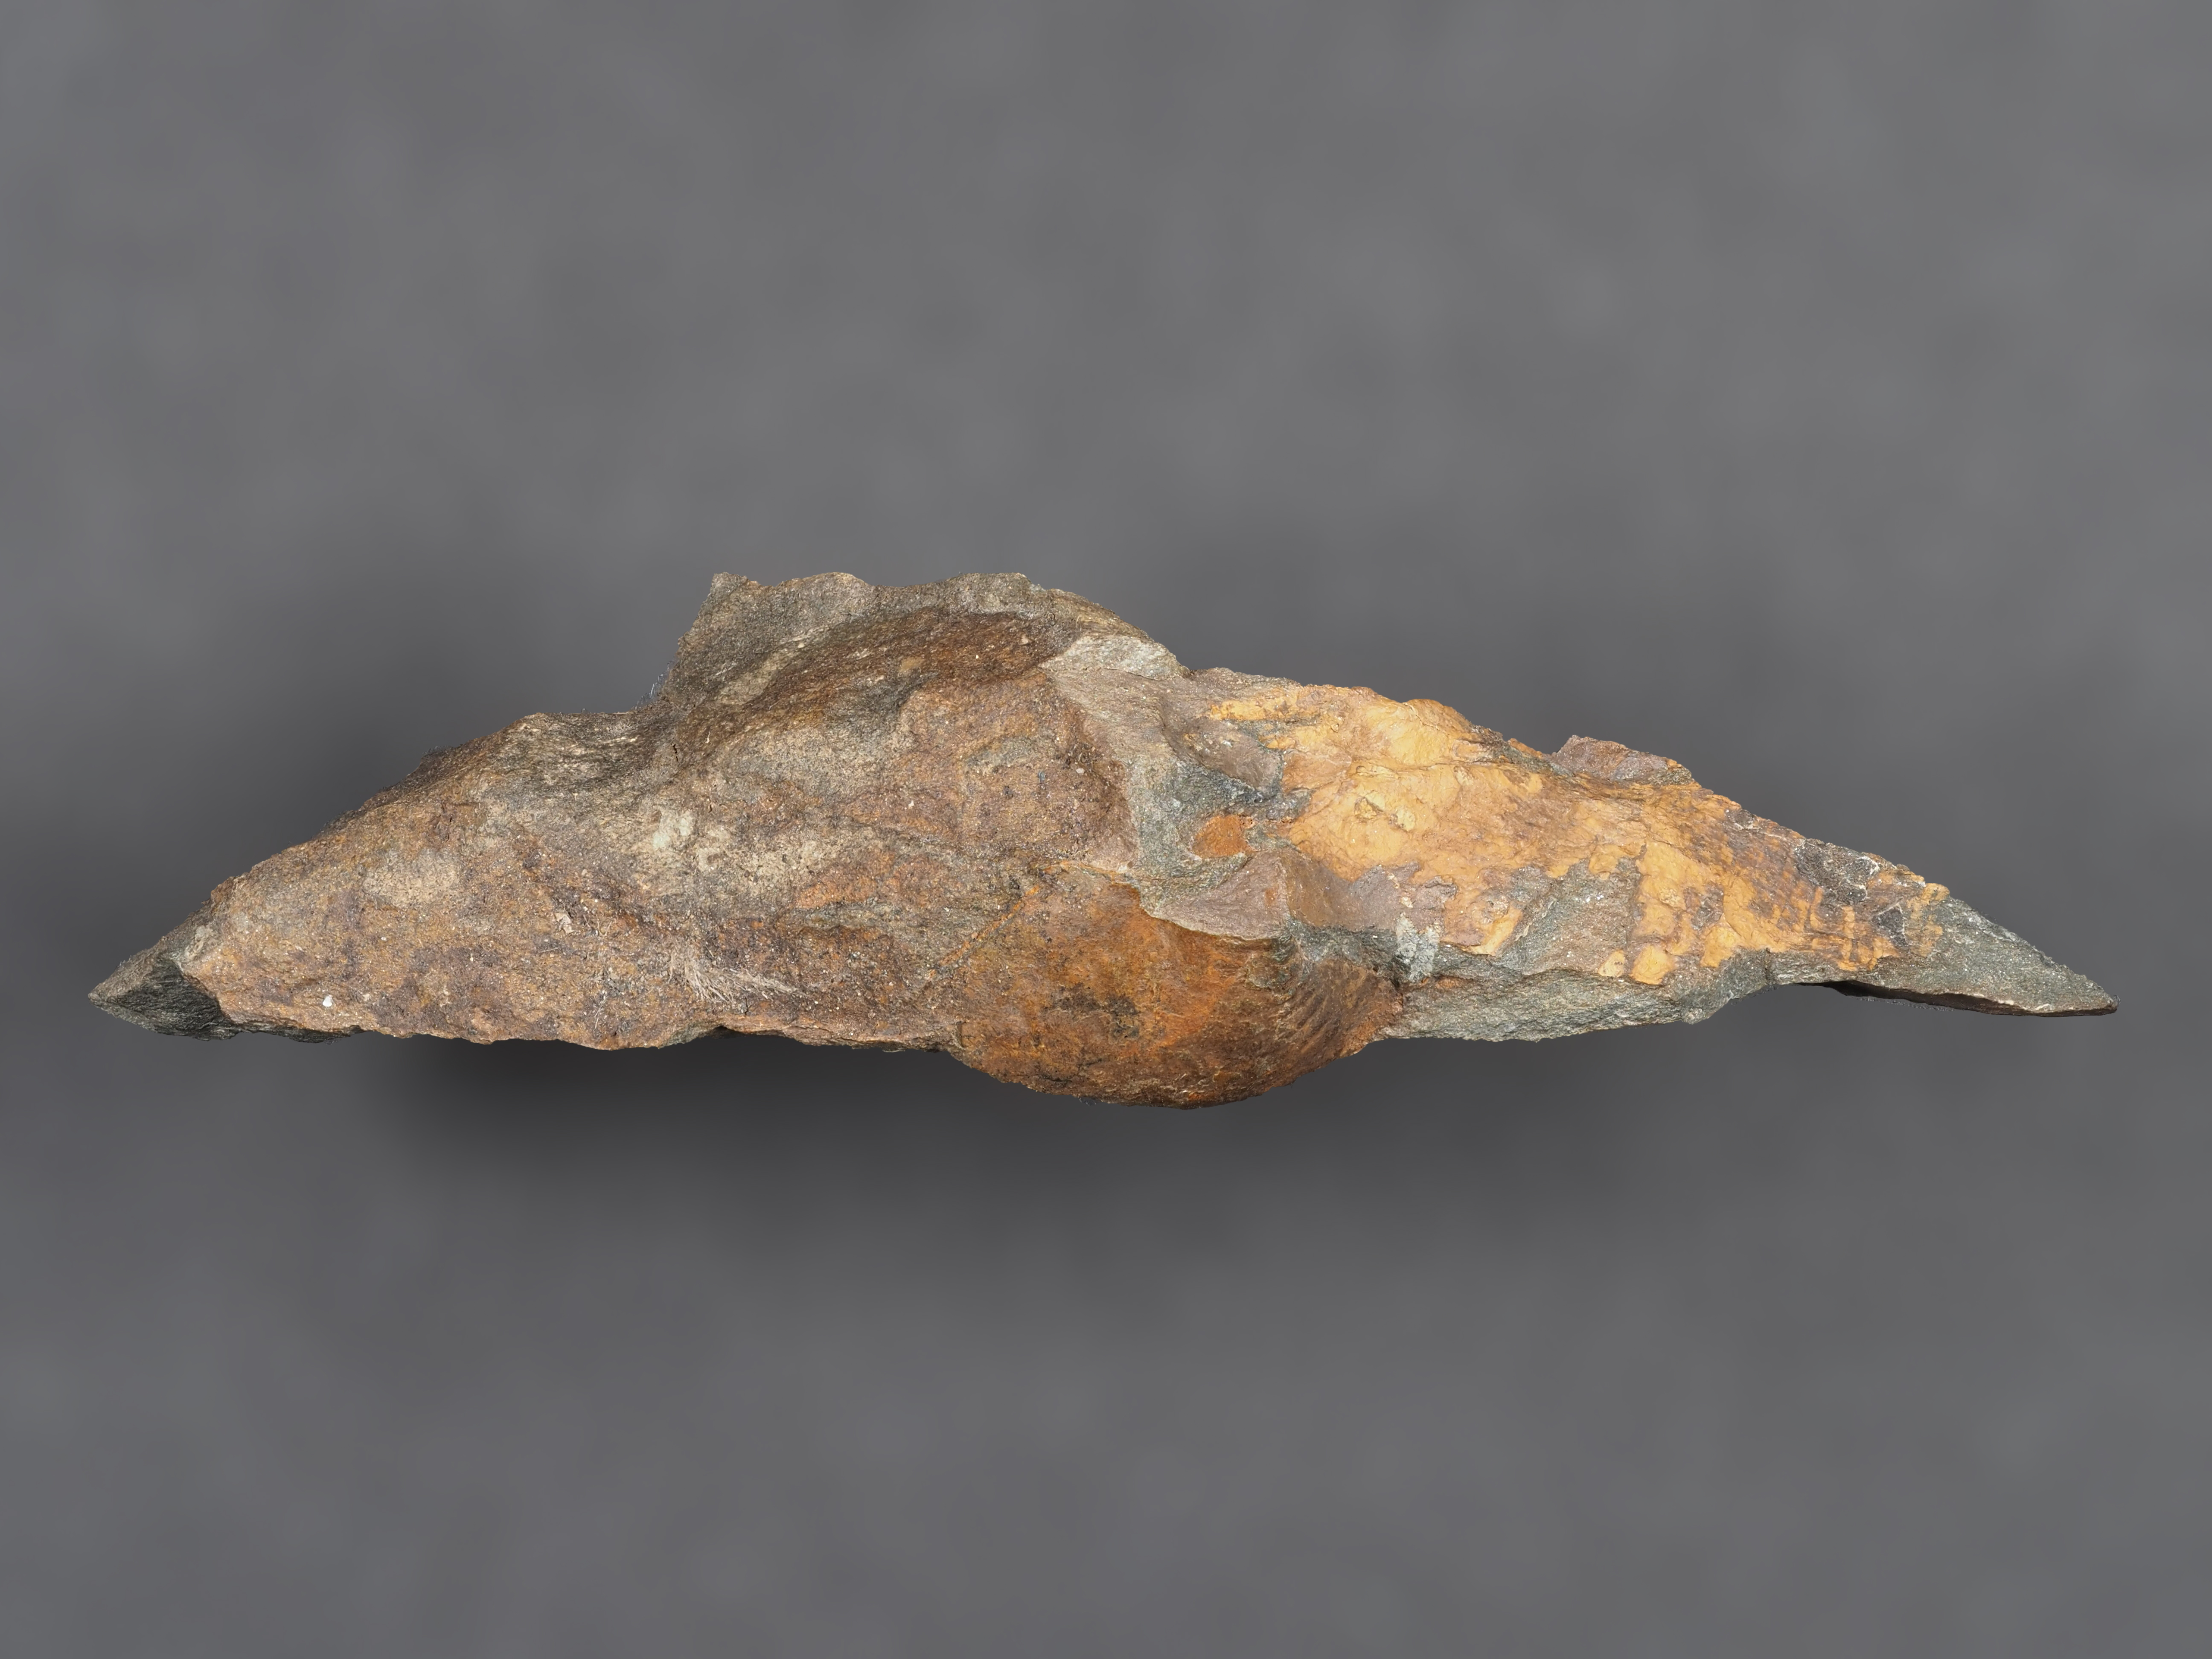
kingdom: Animalia
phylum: Arthropoda
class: Trilobita
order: Phacopida
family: Homalonotidae
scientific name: Homalonotidae
